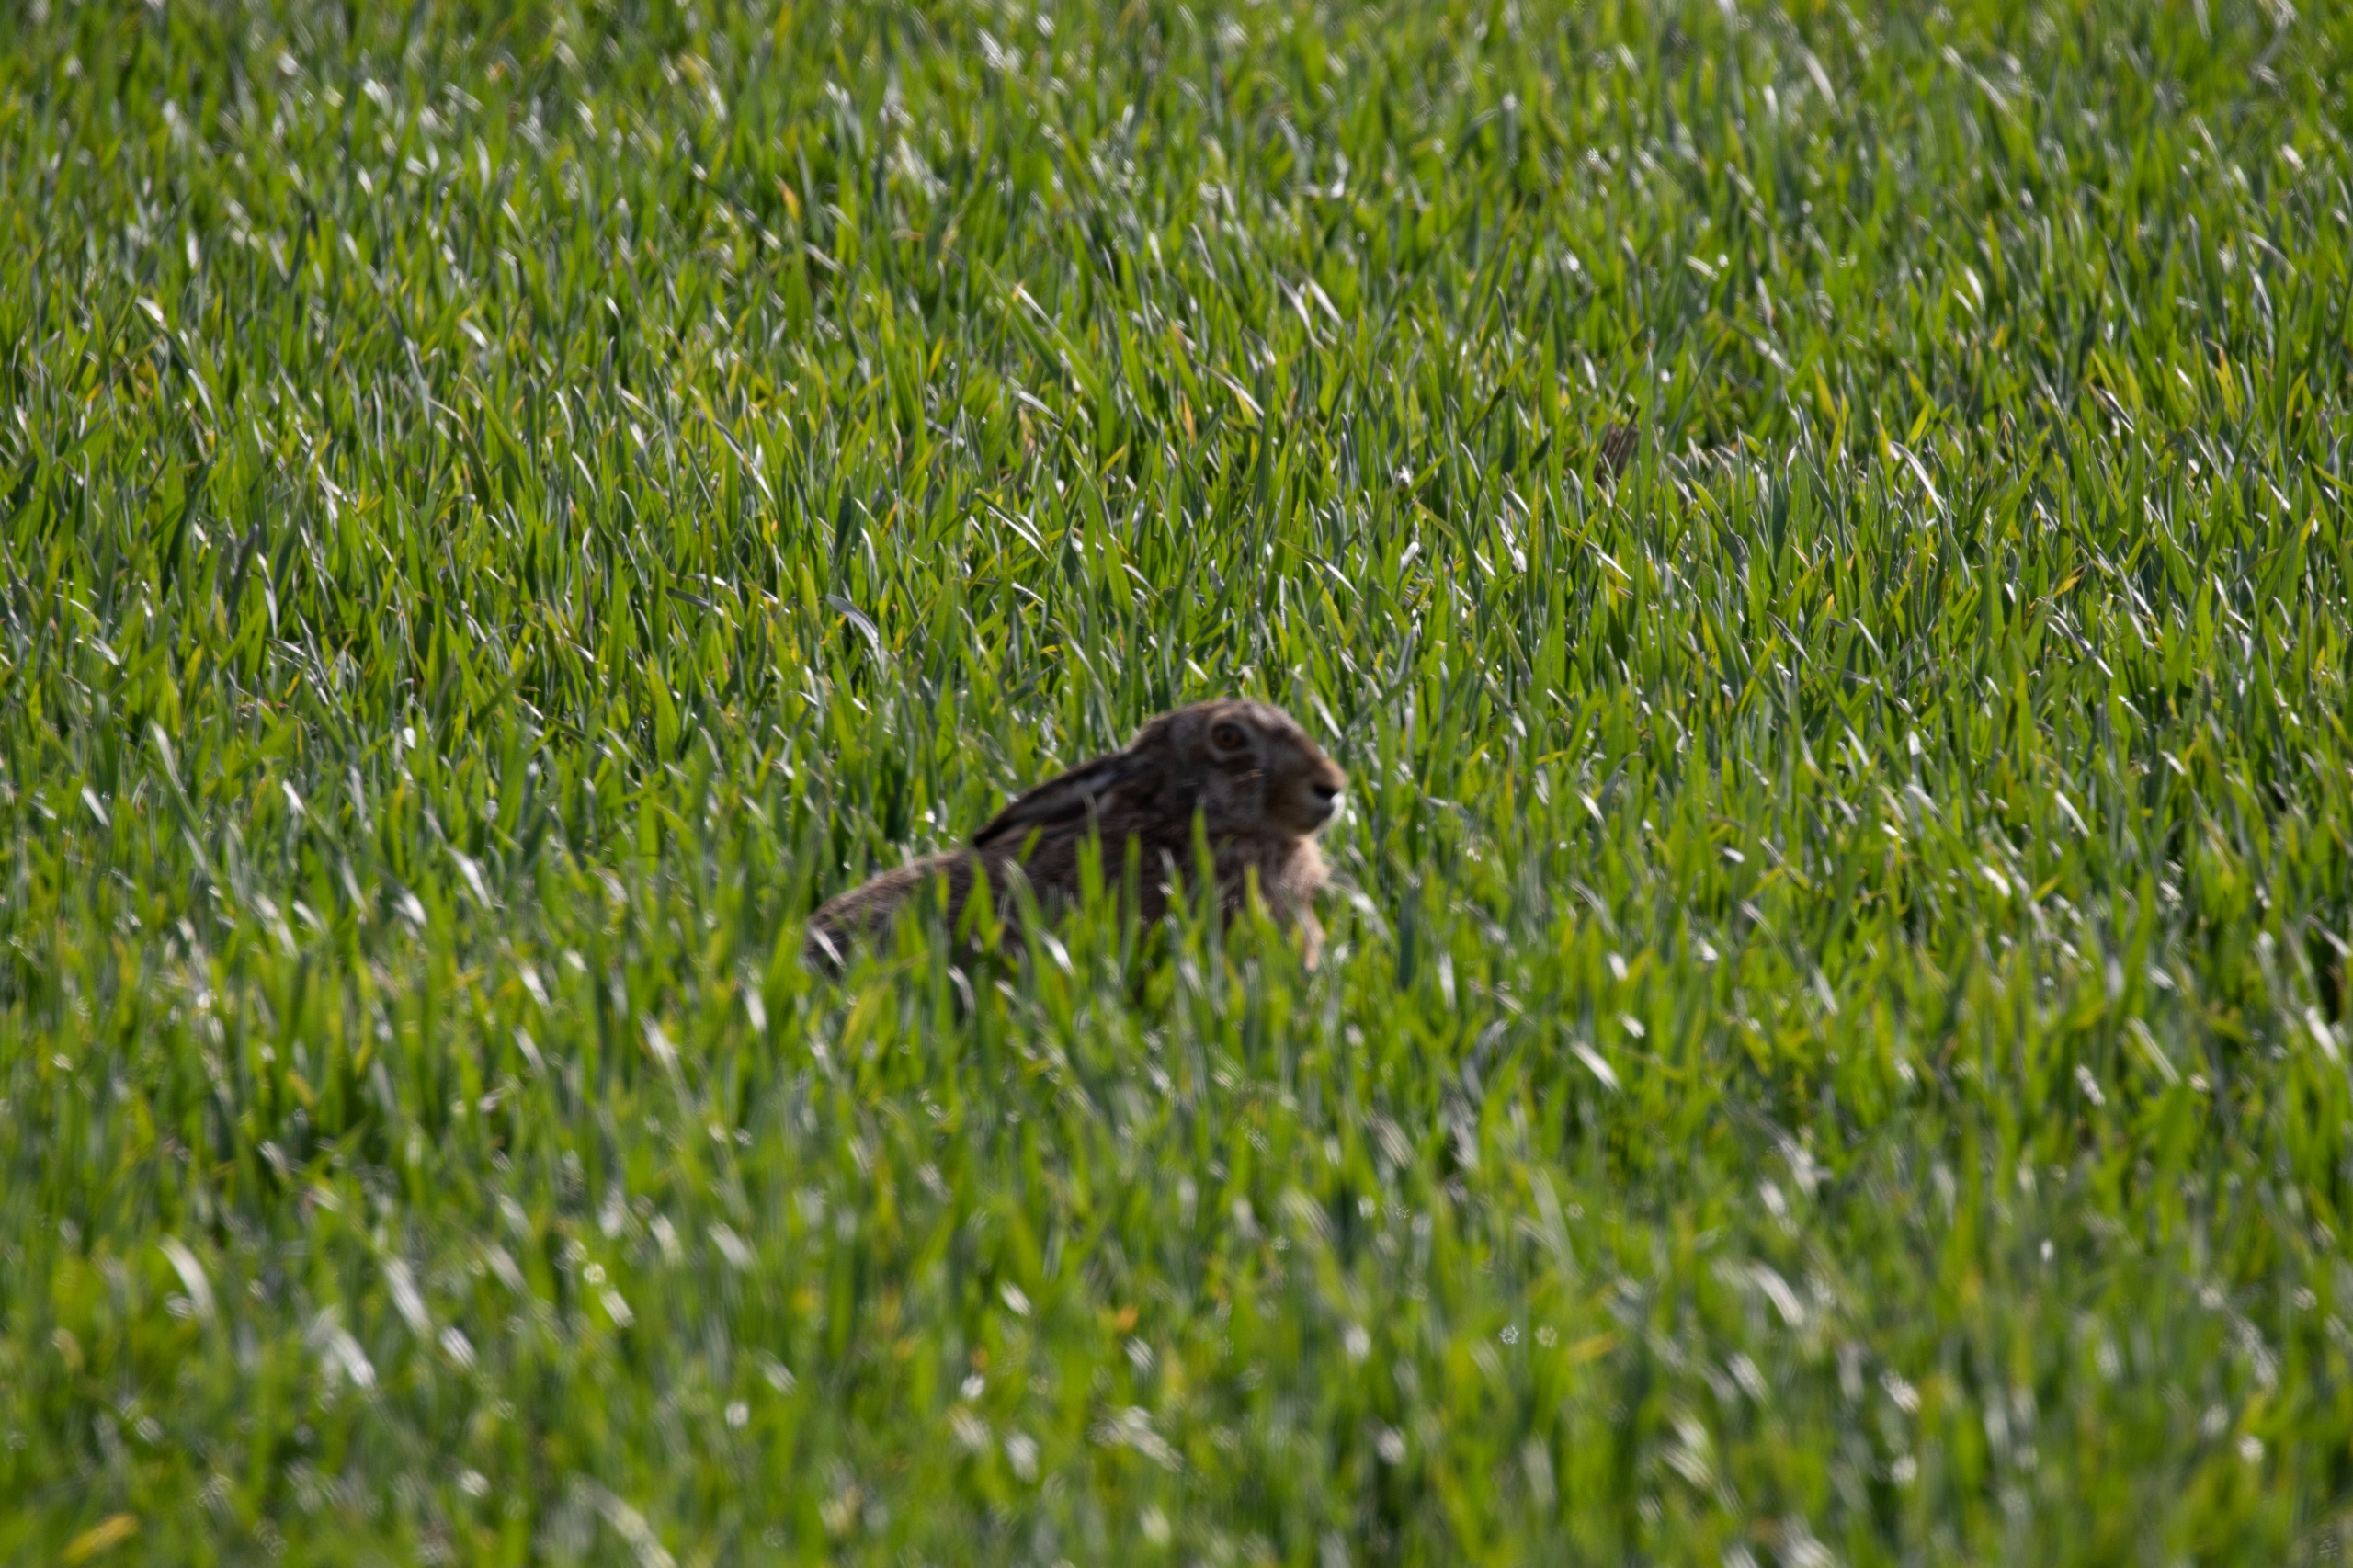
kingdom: Animalia
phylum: Chordata
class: Mammalia
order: Lagomorpha
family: Leporidae
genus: Lepus
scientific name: Lepus europaeus
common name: Hare
